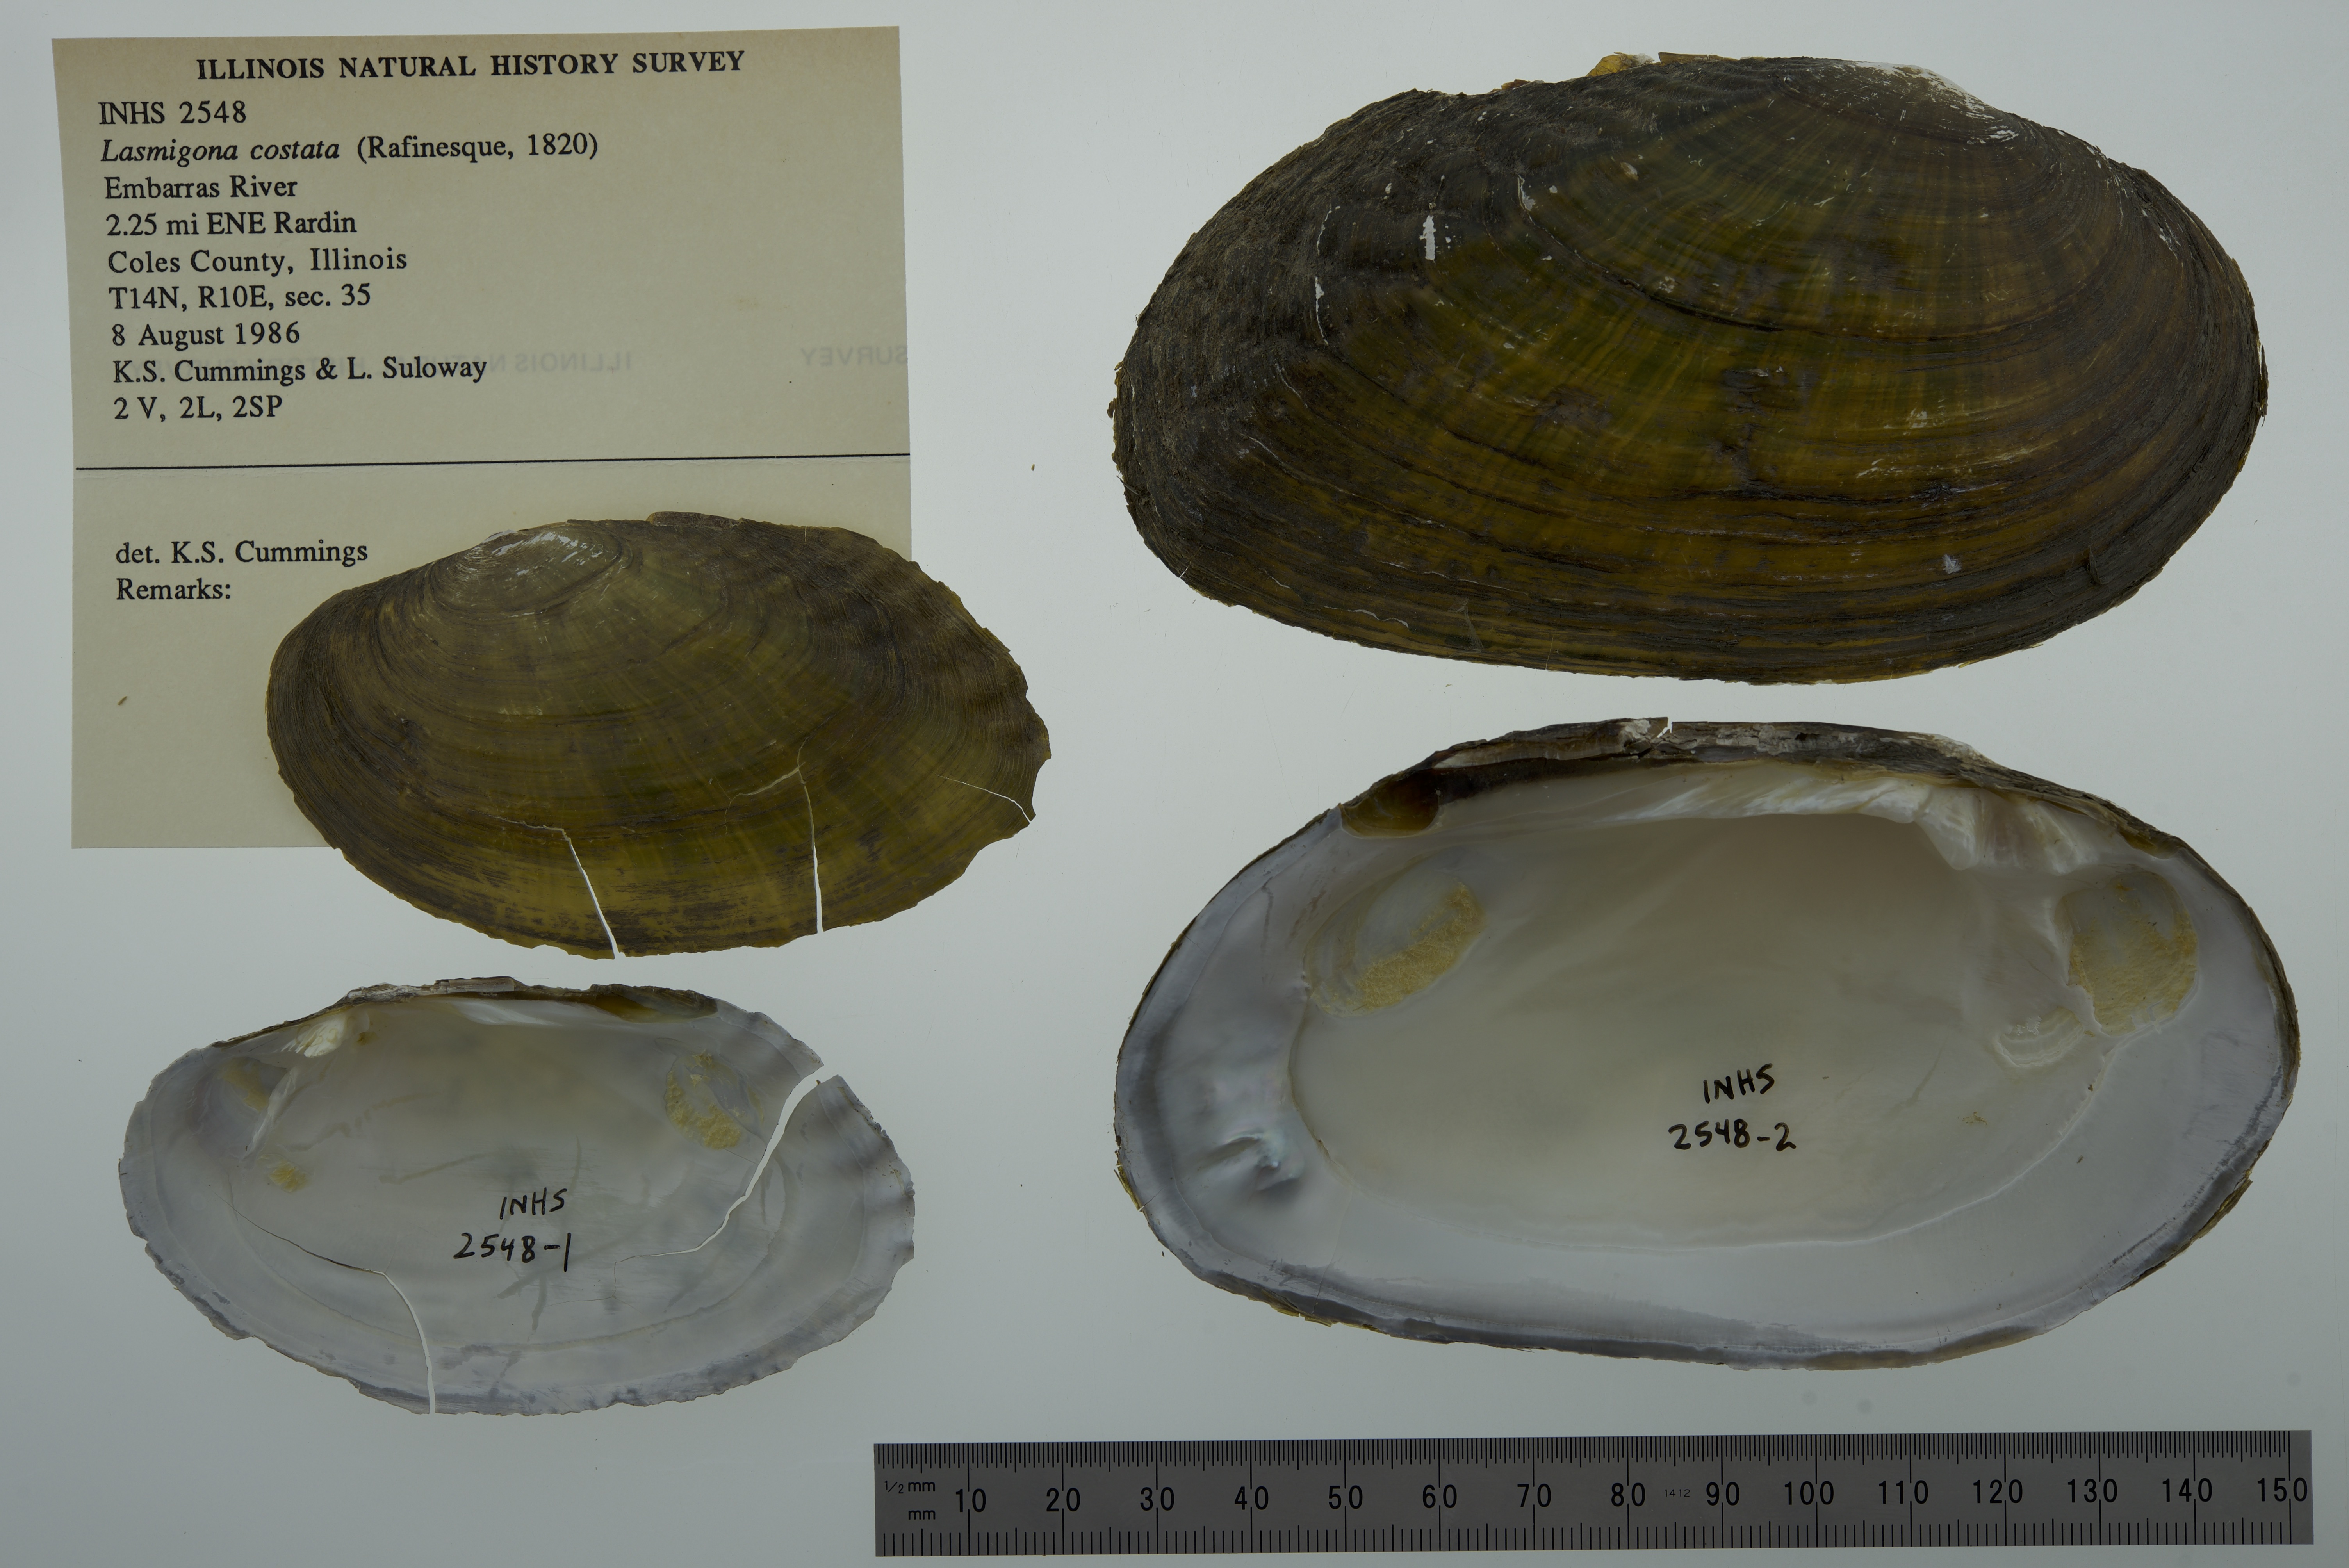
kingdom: Animalia
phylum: Mollusca
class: Bivalvia
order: Unionida
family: Unionidae
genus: Lasmigona
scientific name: Lasmigona costata
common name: Flutedshell
